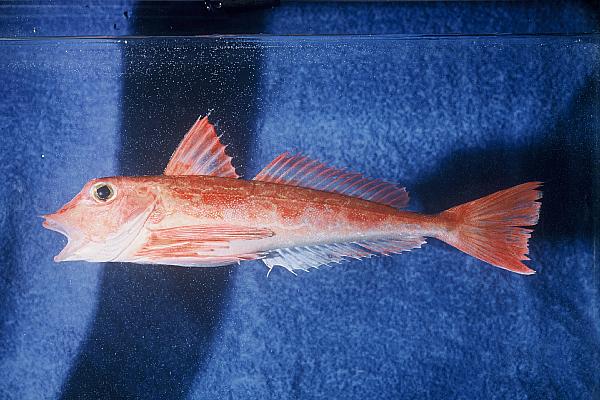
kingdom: Animalia
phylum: Chordata
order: Scorpaeniformes
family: Triglidae
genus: Chelidonichthys
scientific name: Chelidonichthys queketti
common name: Lesser gurnard
